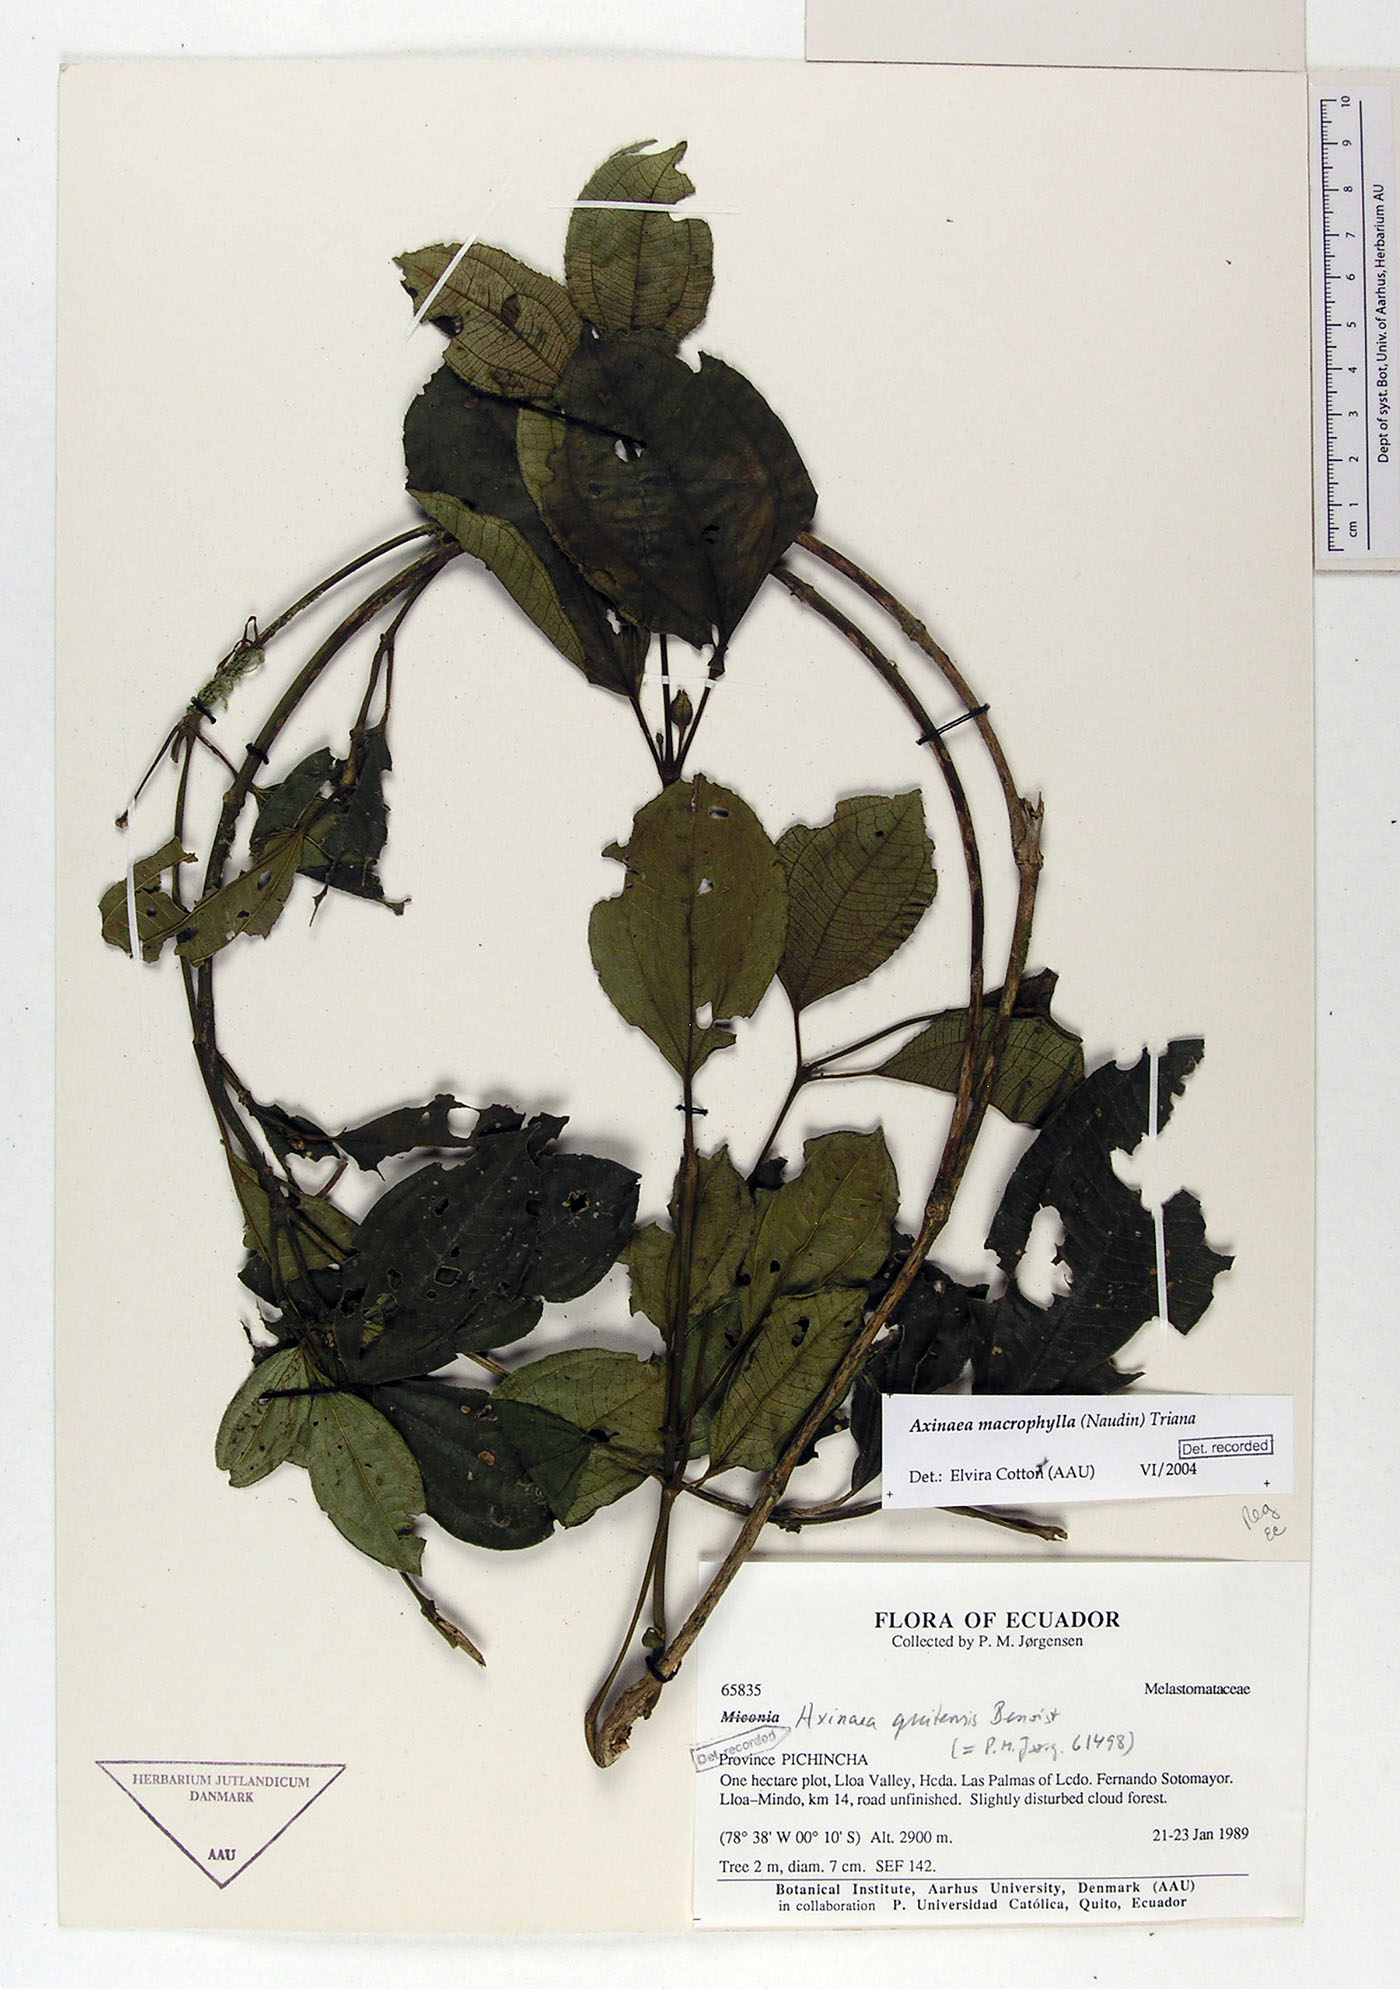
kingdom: Plantae
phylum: Tracheophyta
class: Magnoliopsida
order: Myrtales
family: Melastomataceae
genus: Axinaea
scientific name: Axinaea macrophylla
